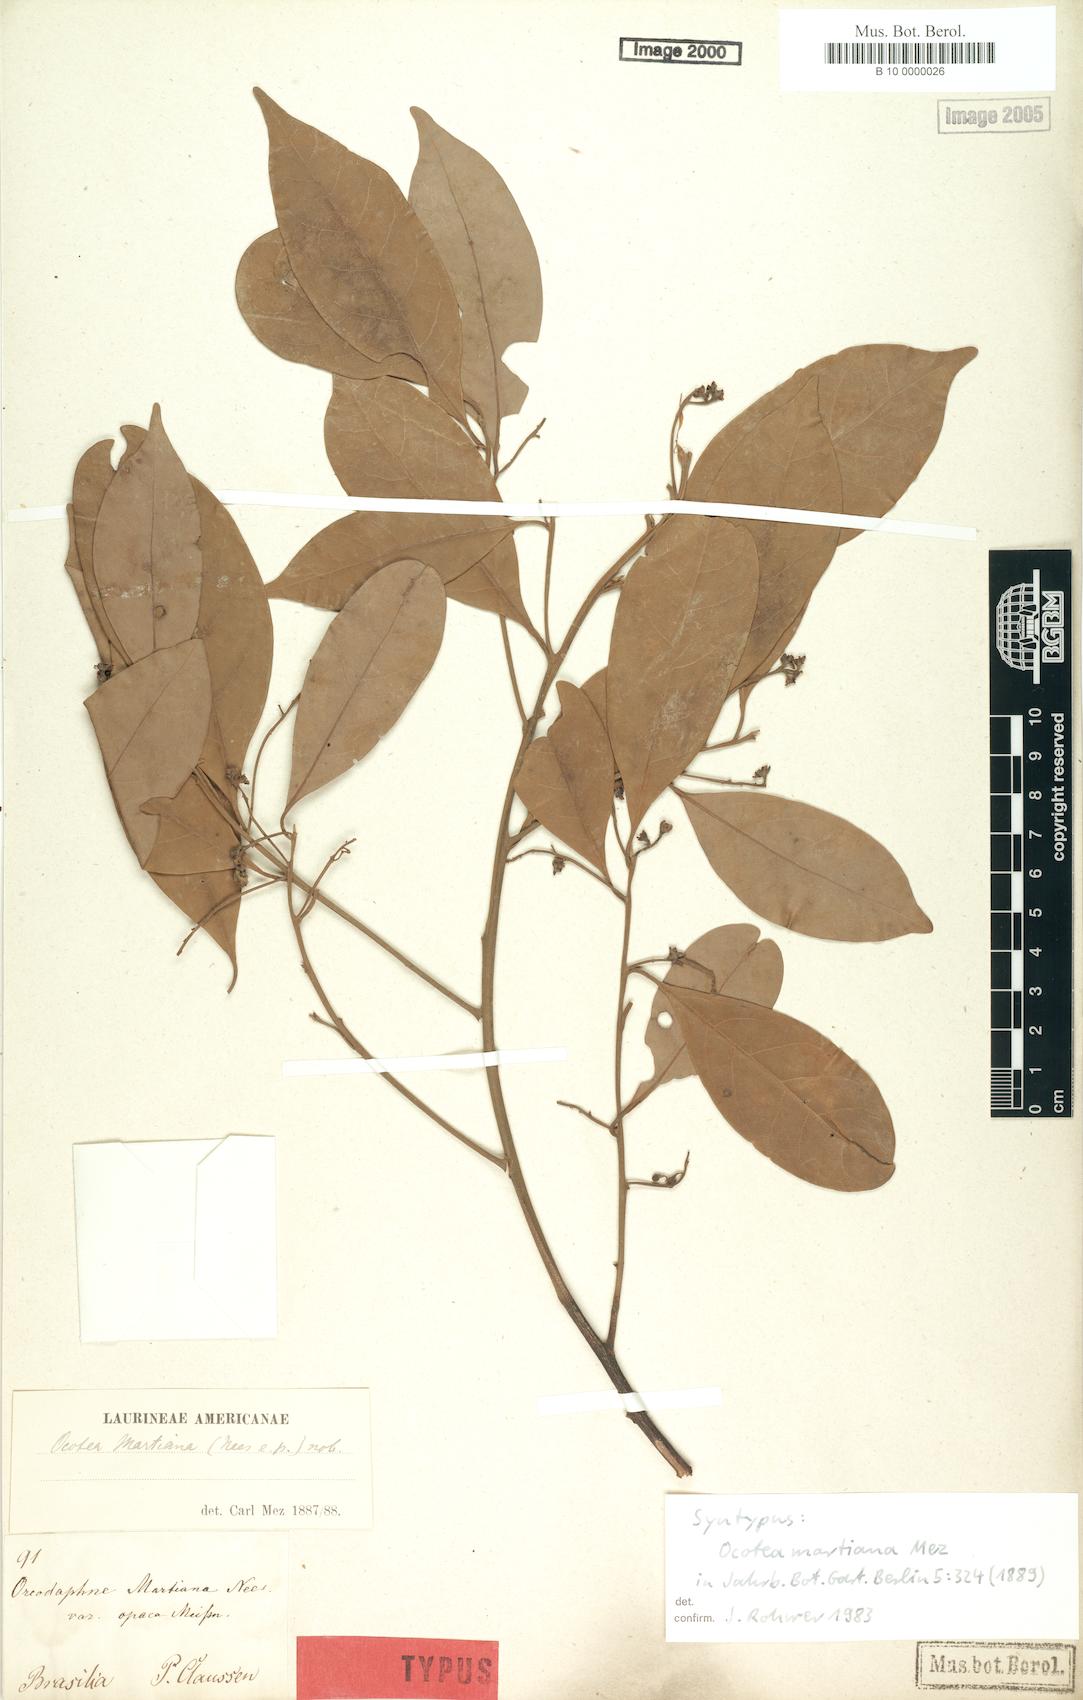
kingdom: Plantae
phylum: Tracheophyta
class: Magnoliopsida
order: Laurales
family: Lauraceae
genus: Ocotea
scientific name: Ocotea lancifolia
